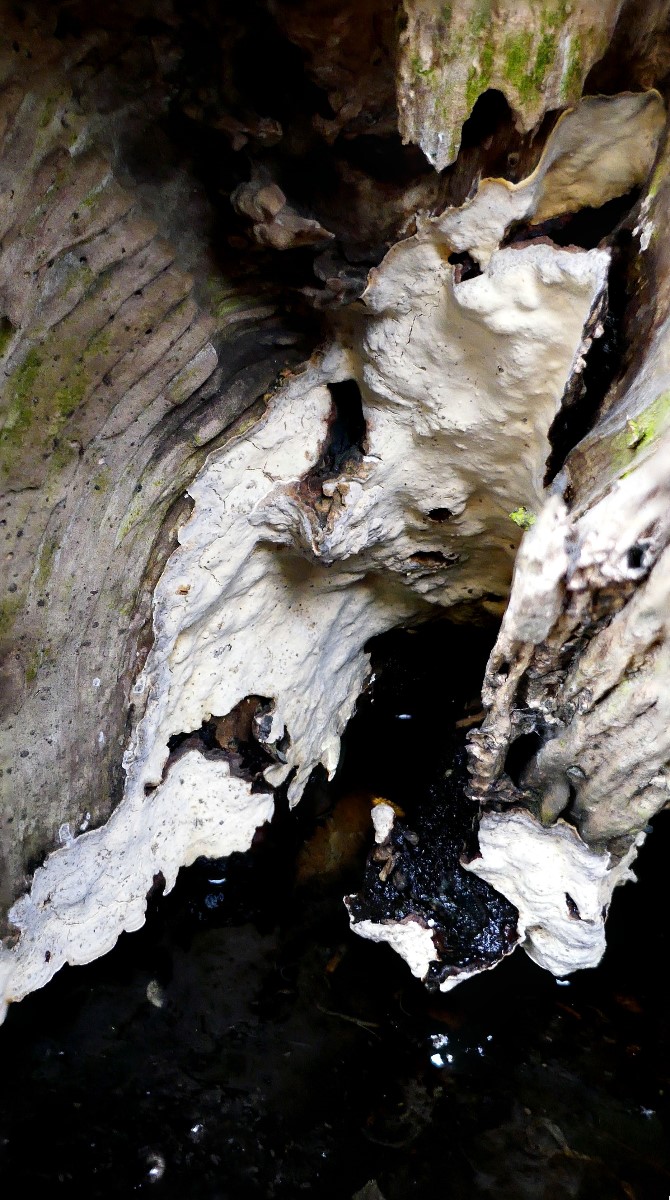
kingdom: Fungi
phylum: Basidiomycota
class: Agaricomycetes
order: Russulales
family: Stereaceae
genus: Stereum
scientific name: Stereum rugosum
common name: rynket lædersvamp
